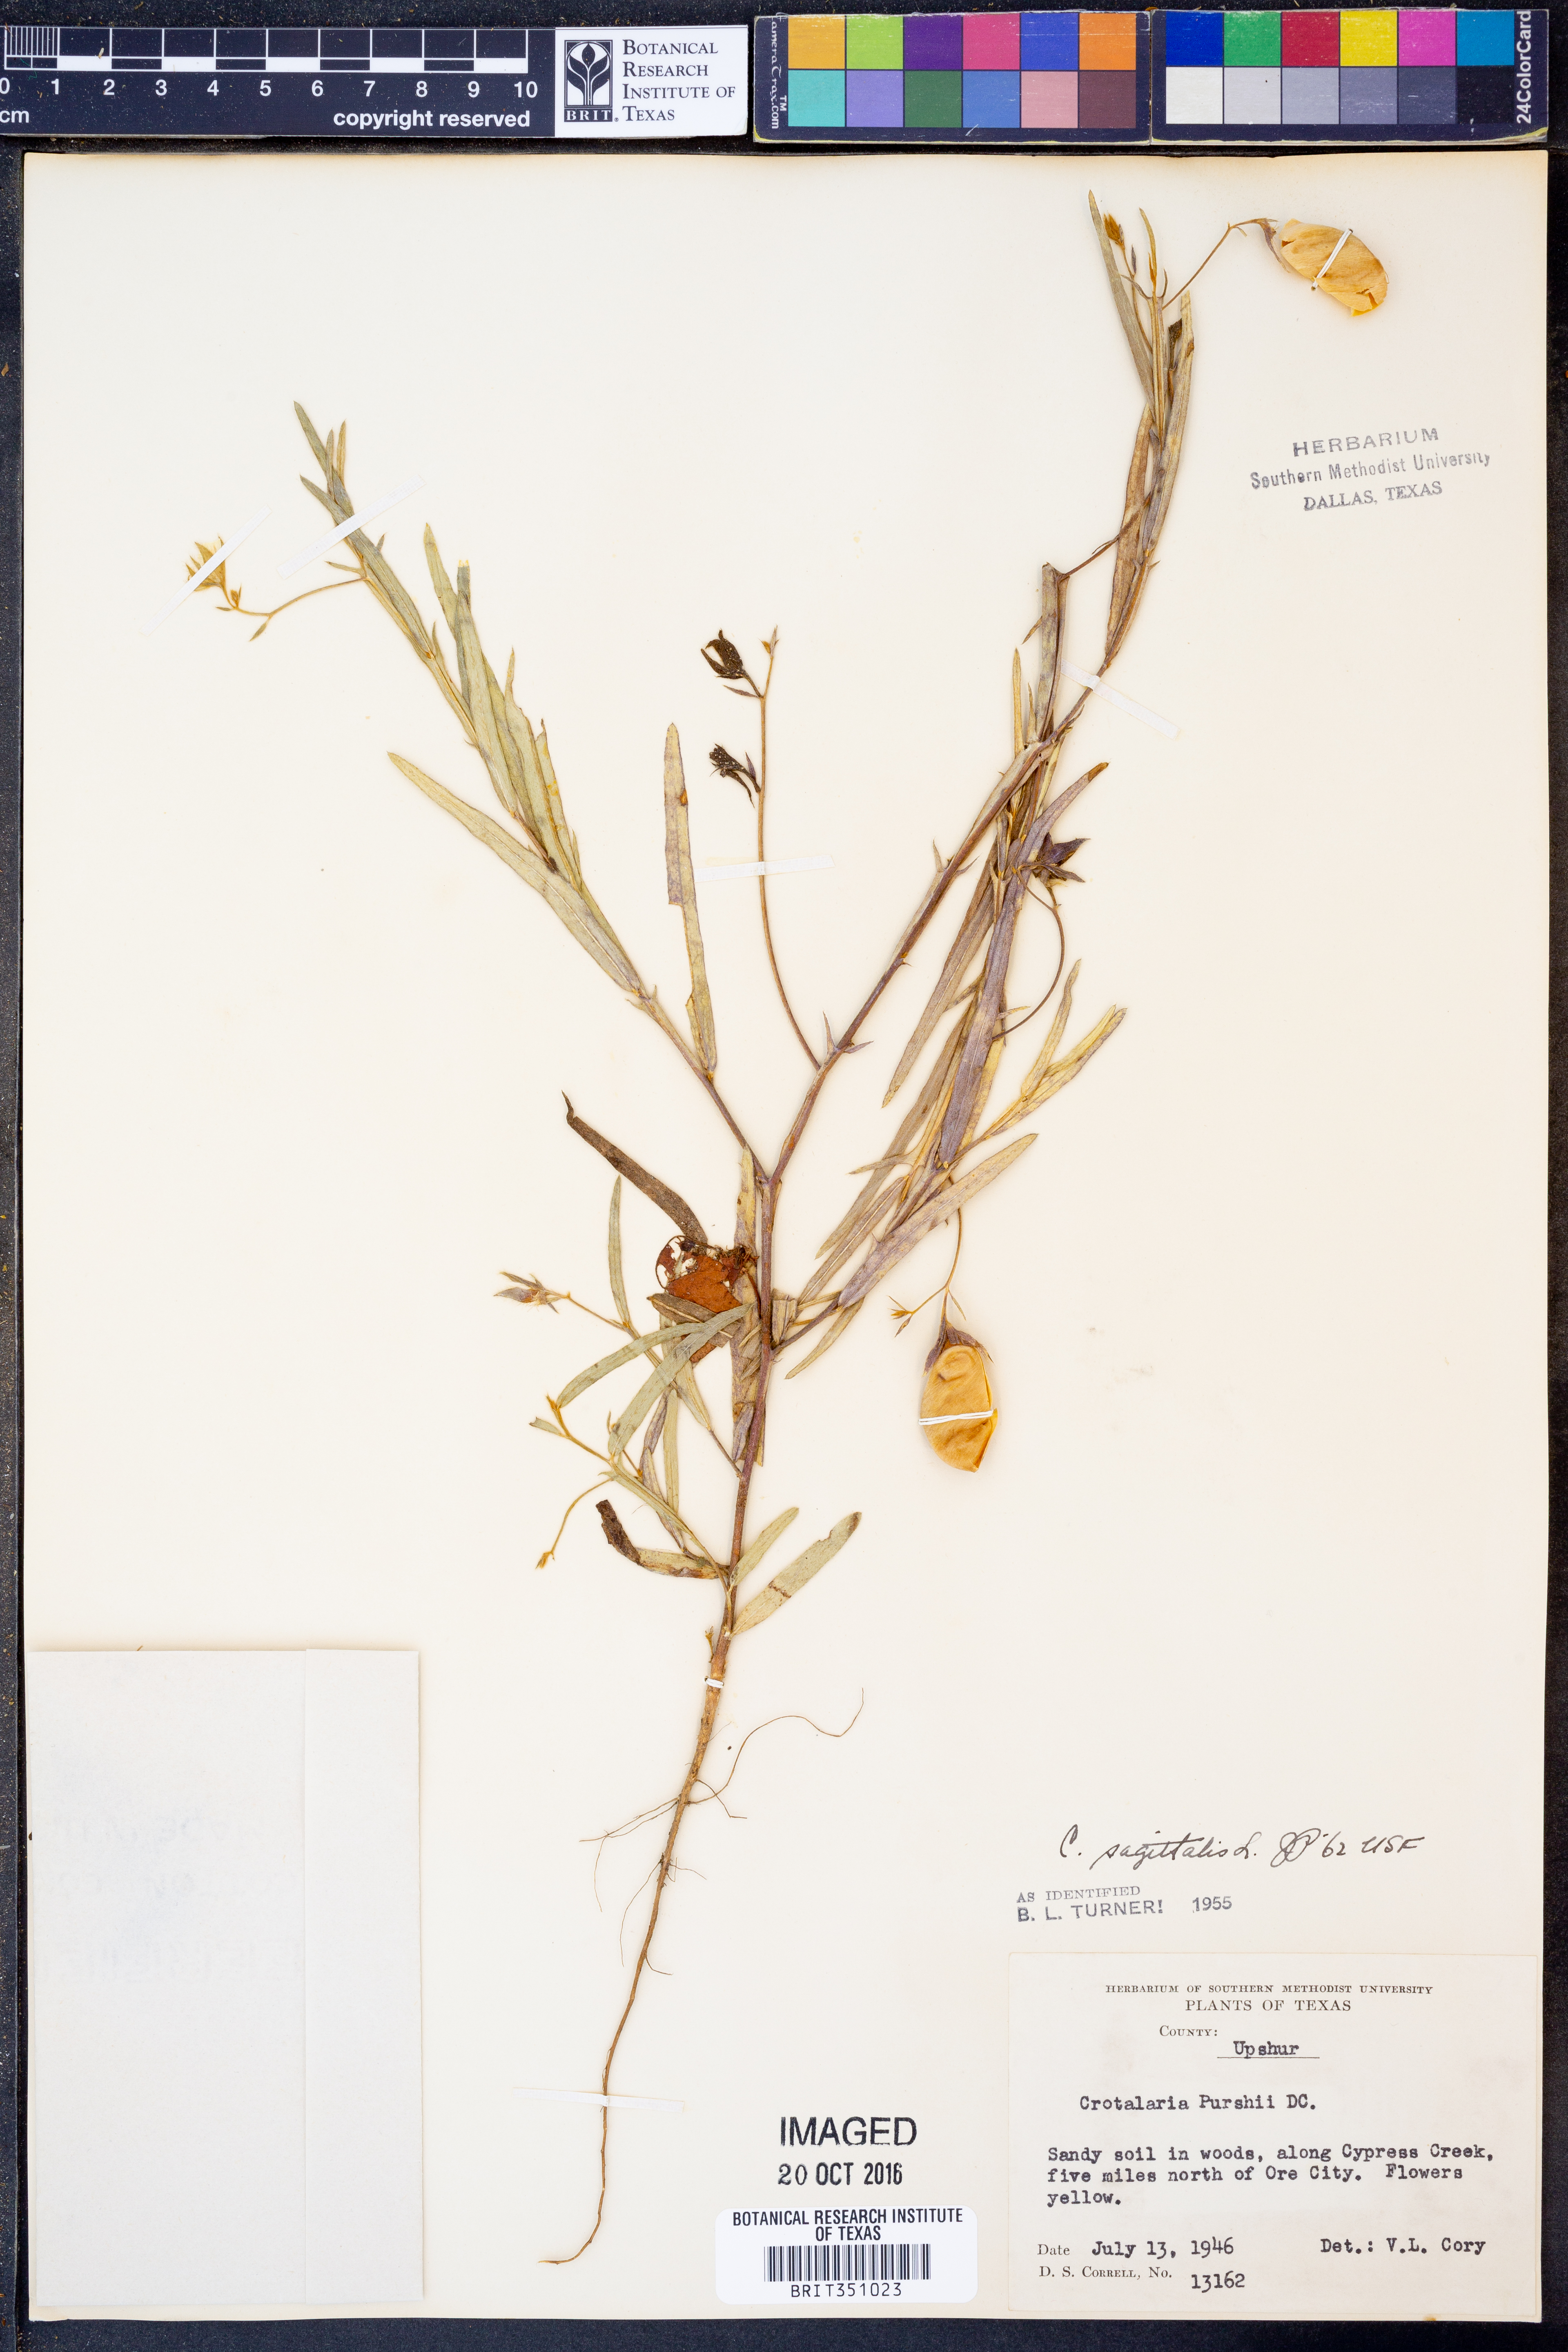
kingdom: Plantae
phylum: Tracheophyta
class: Magnoliopsida
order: Fabales
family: Fabaceae
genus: Crotalaria
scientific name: Crotalaria sagittalis
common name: Arrowhead rattlebox
